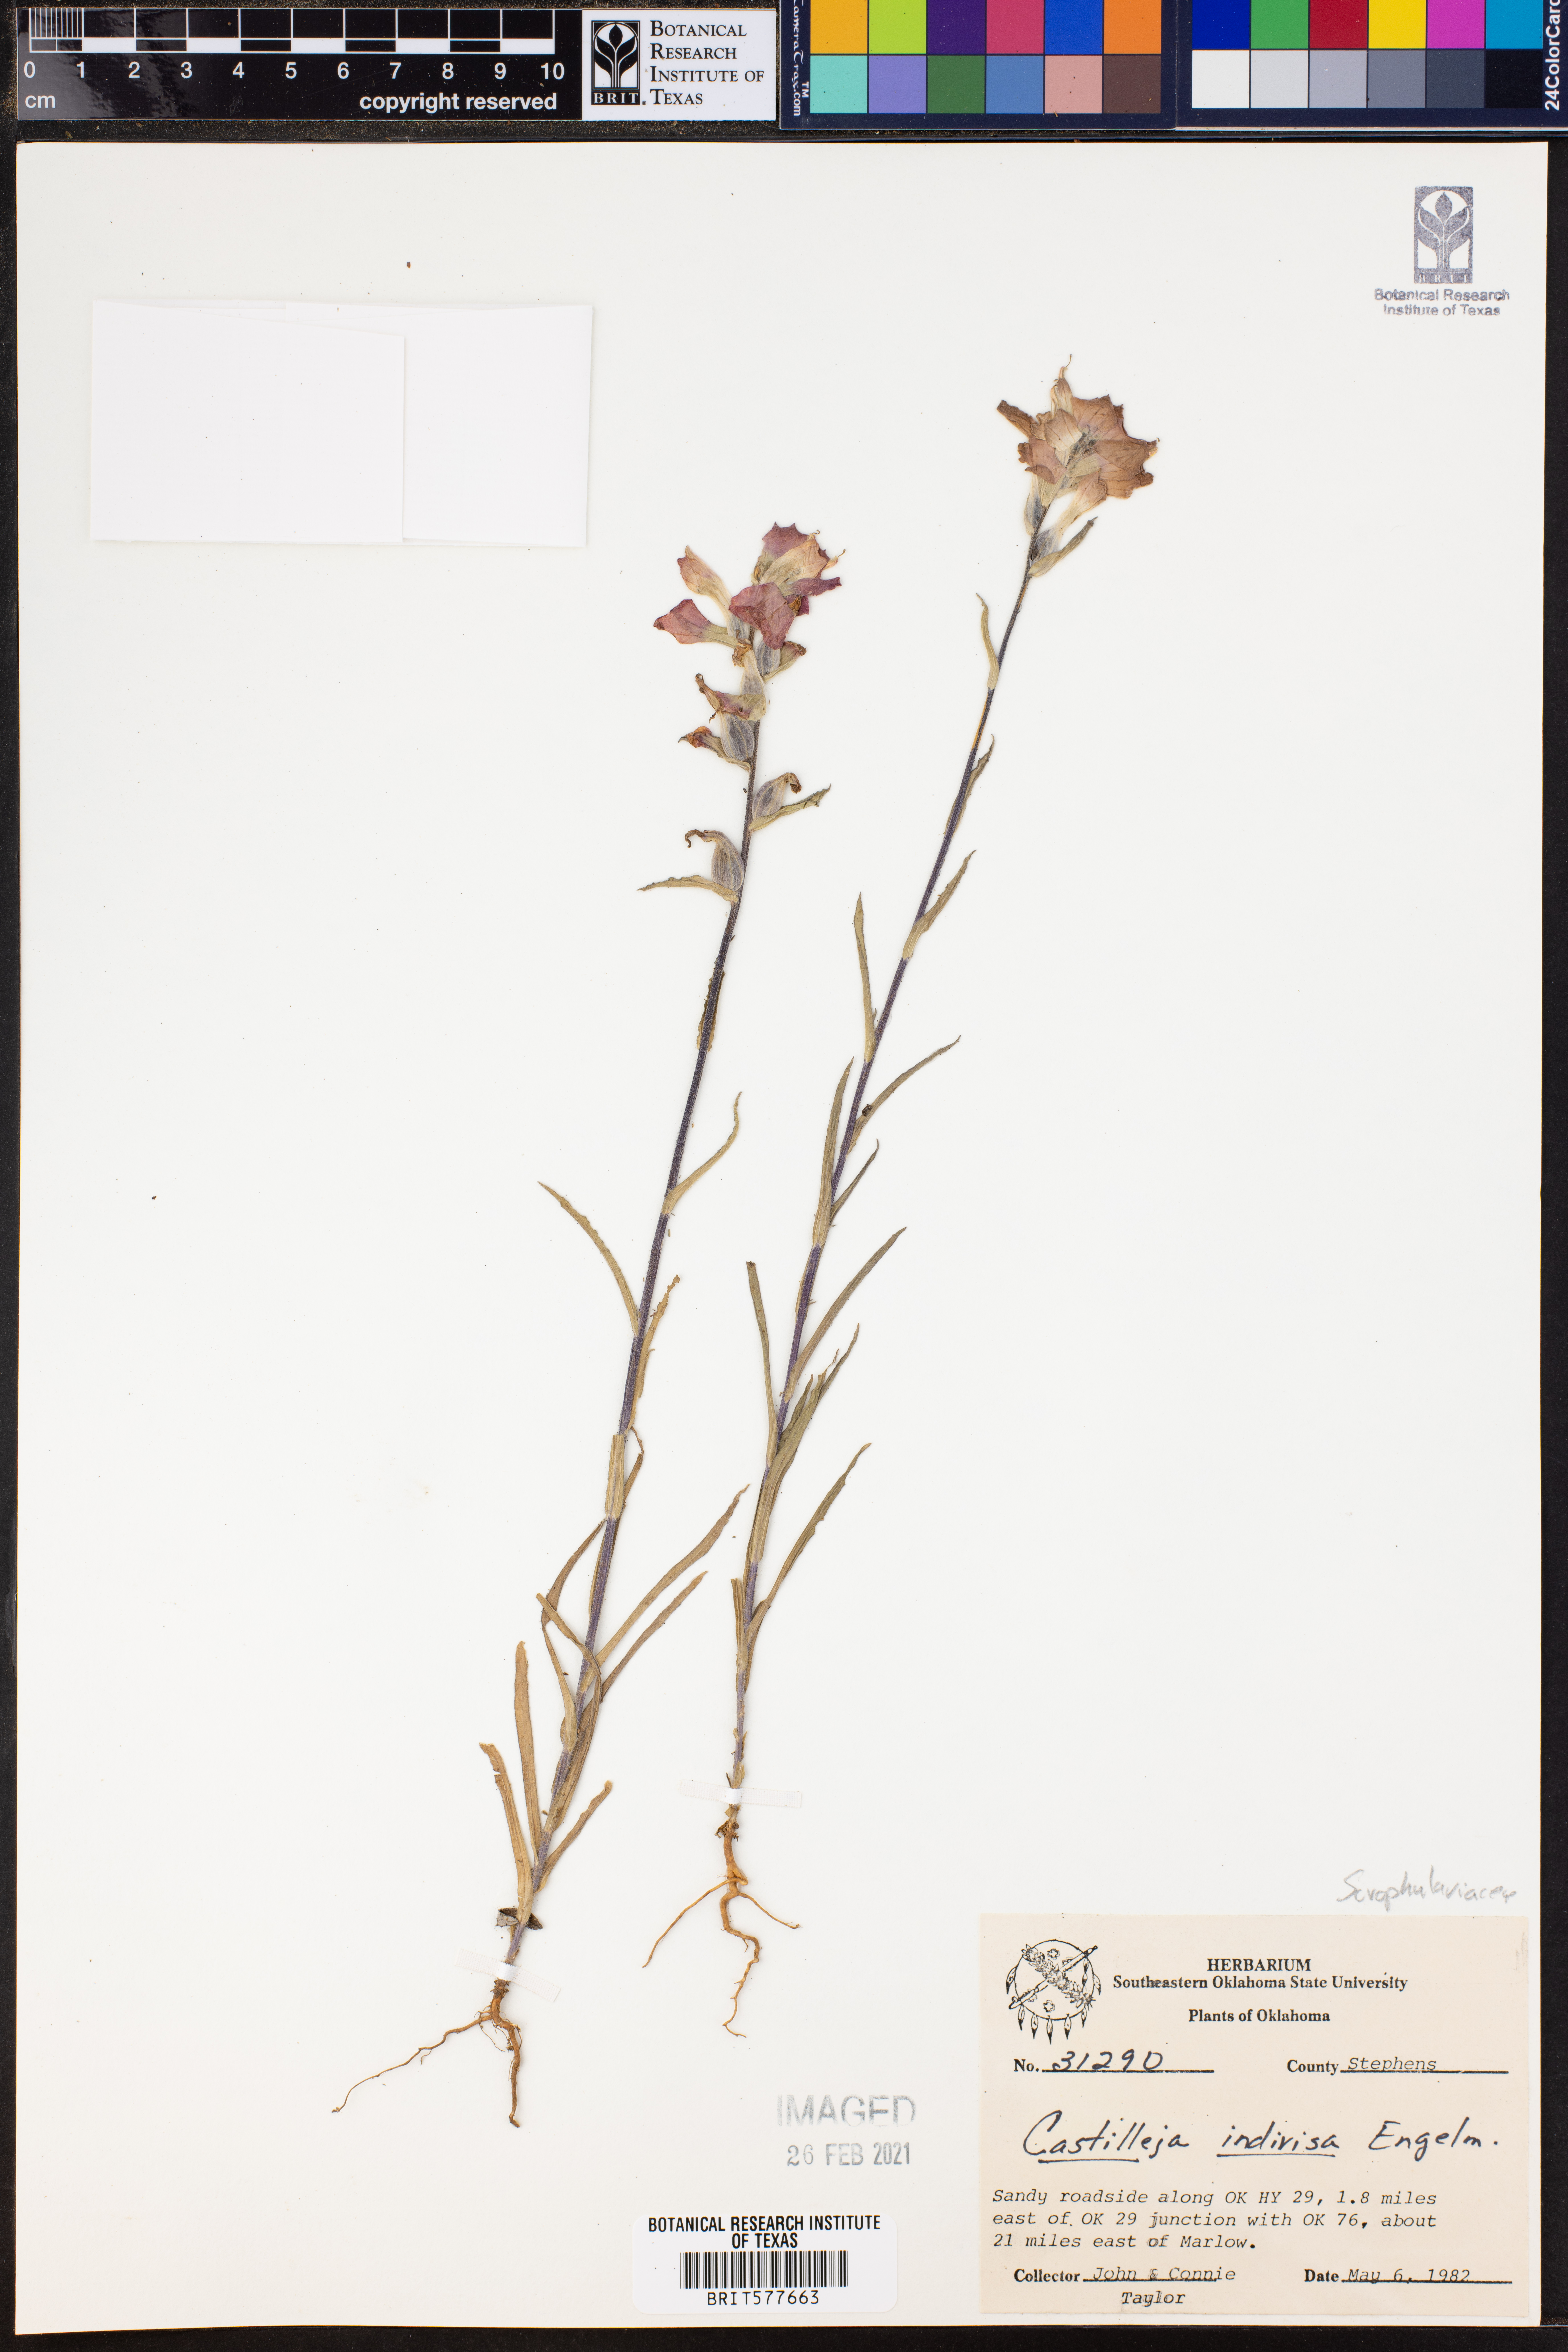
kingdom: Plantae
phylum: Tracheophyta
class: Magnoliopsida
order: Lamiales
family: Orobanchaceae
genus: Castilleja
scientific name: Castilleja indivisa
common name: Texas paintbrush
